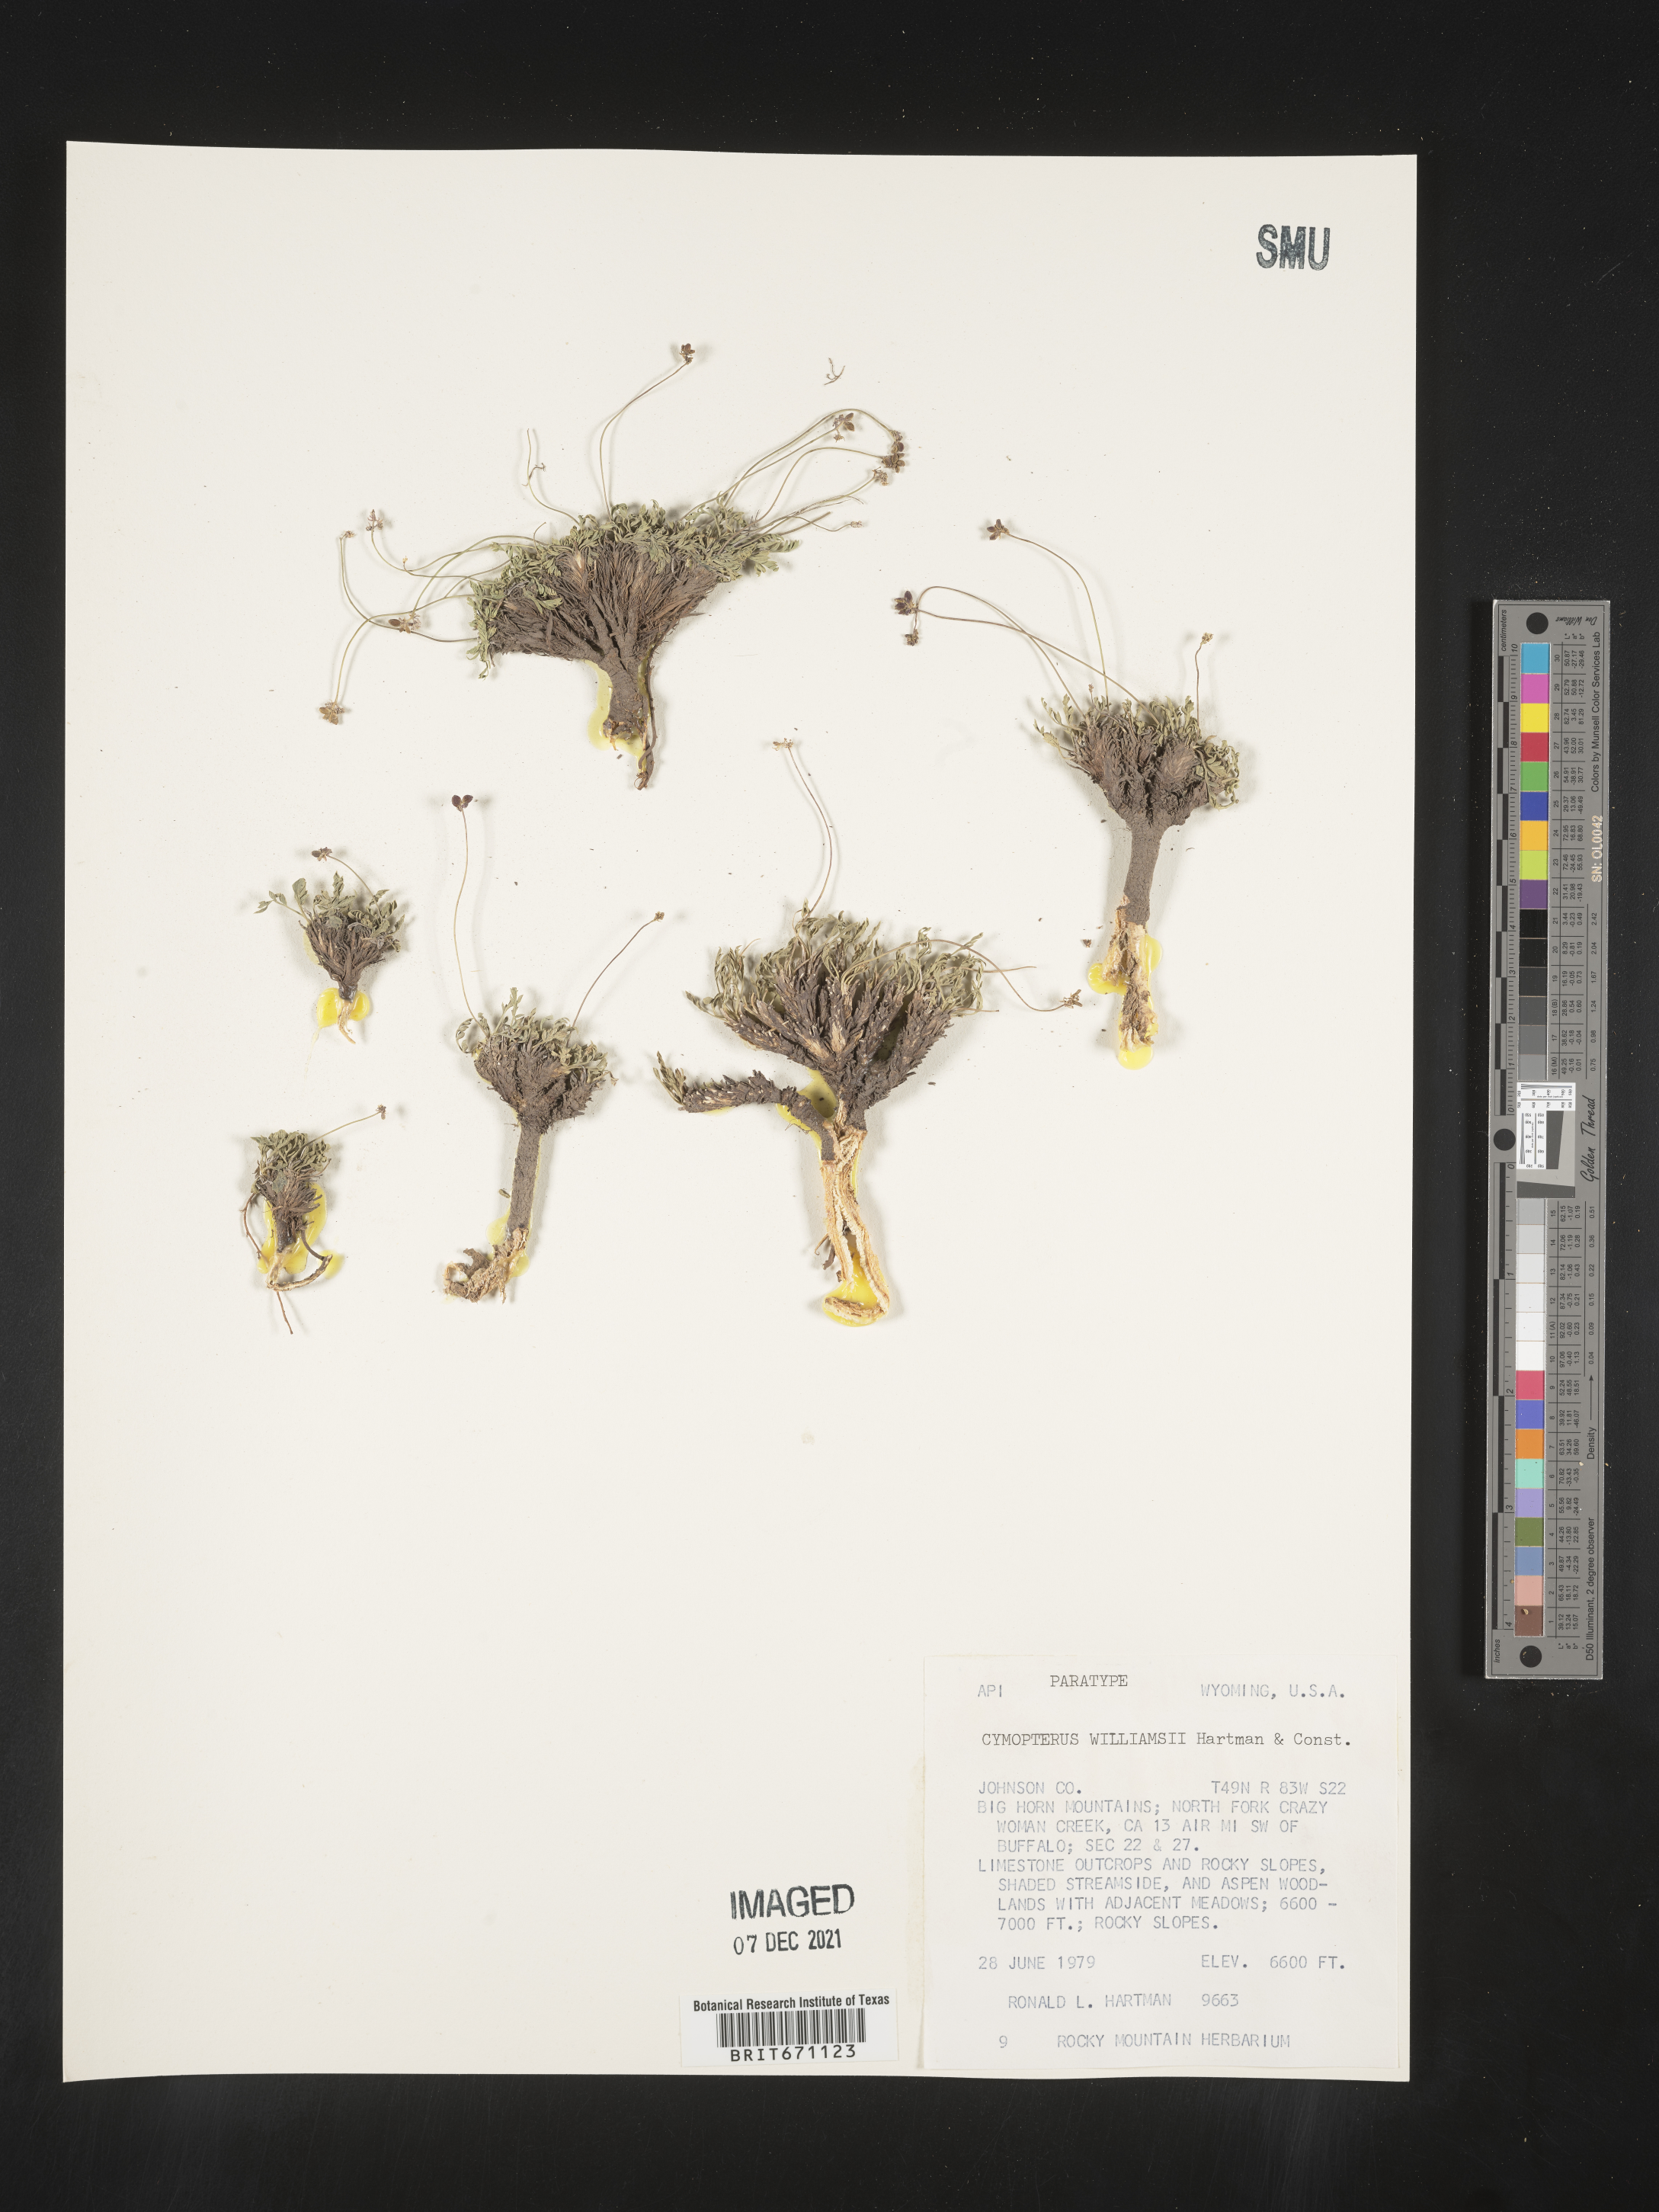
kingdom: Plantae
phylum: Tracheophyta
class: Magnoliopsida
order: Apiales
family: Apiaceae
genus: Cymopterus
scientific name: Cymopterus williamsii
